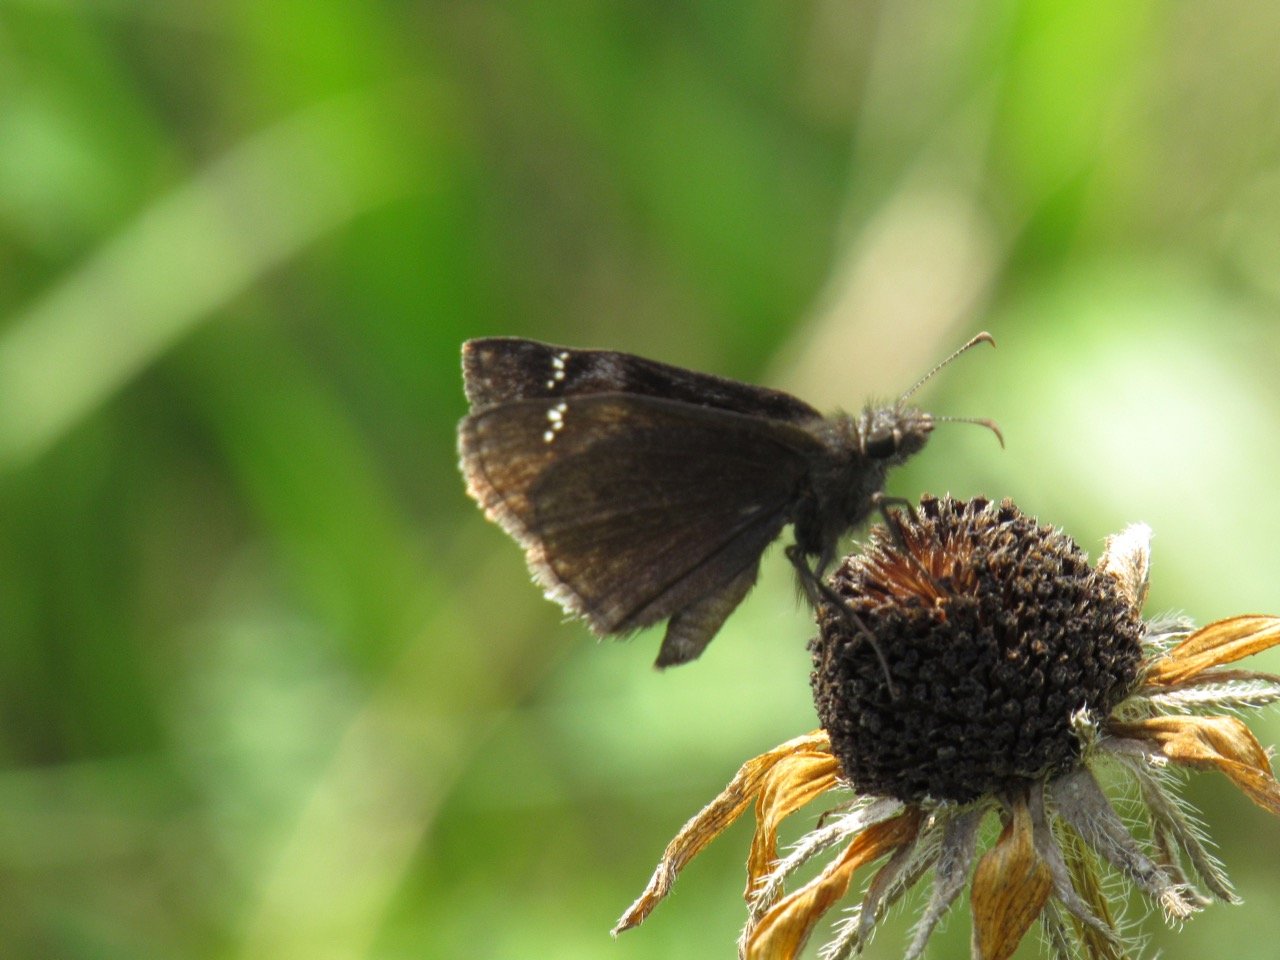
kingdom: Animalia
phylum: Arthropoda
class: Insecta
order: Lepidoptera
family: Hesperiidae
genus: Gesta
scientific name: Gesta
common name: Wild Indigo Duskywing
